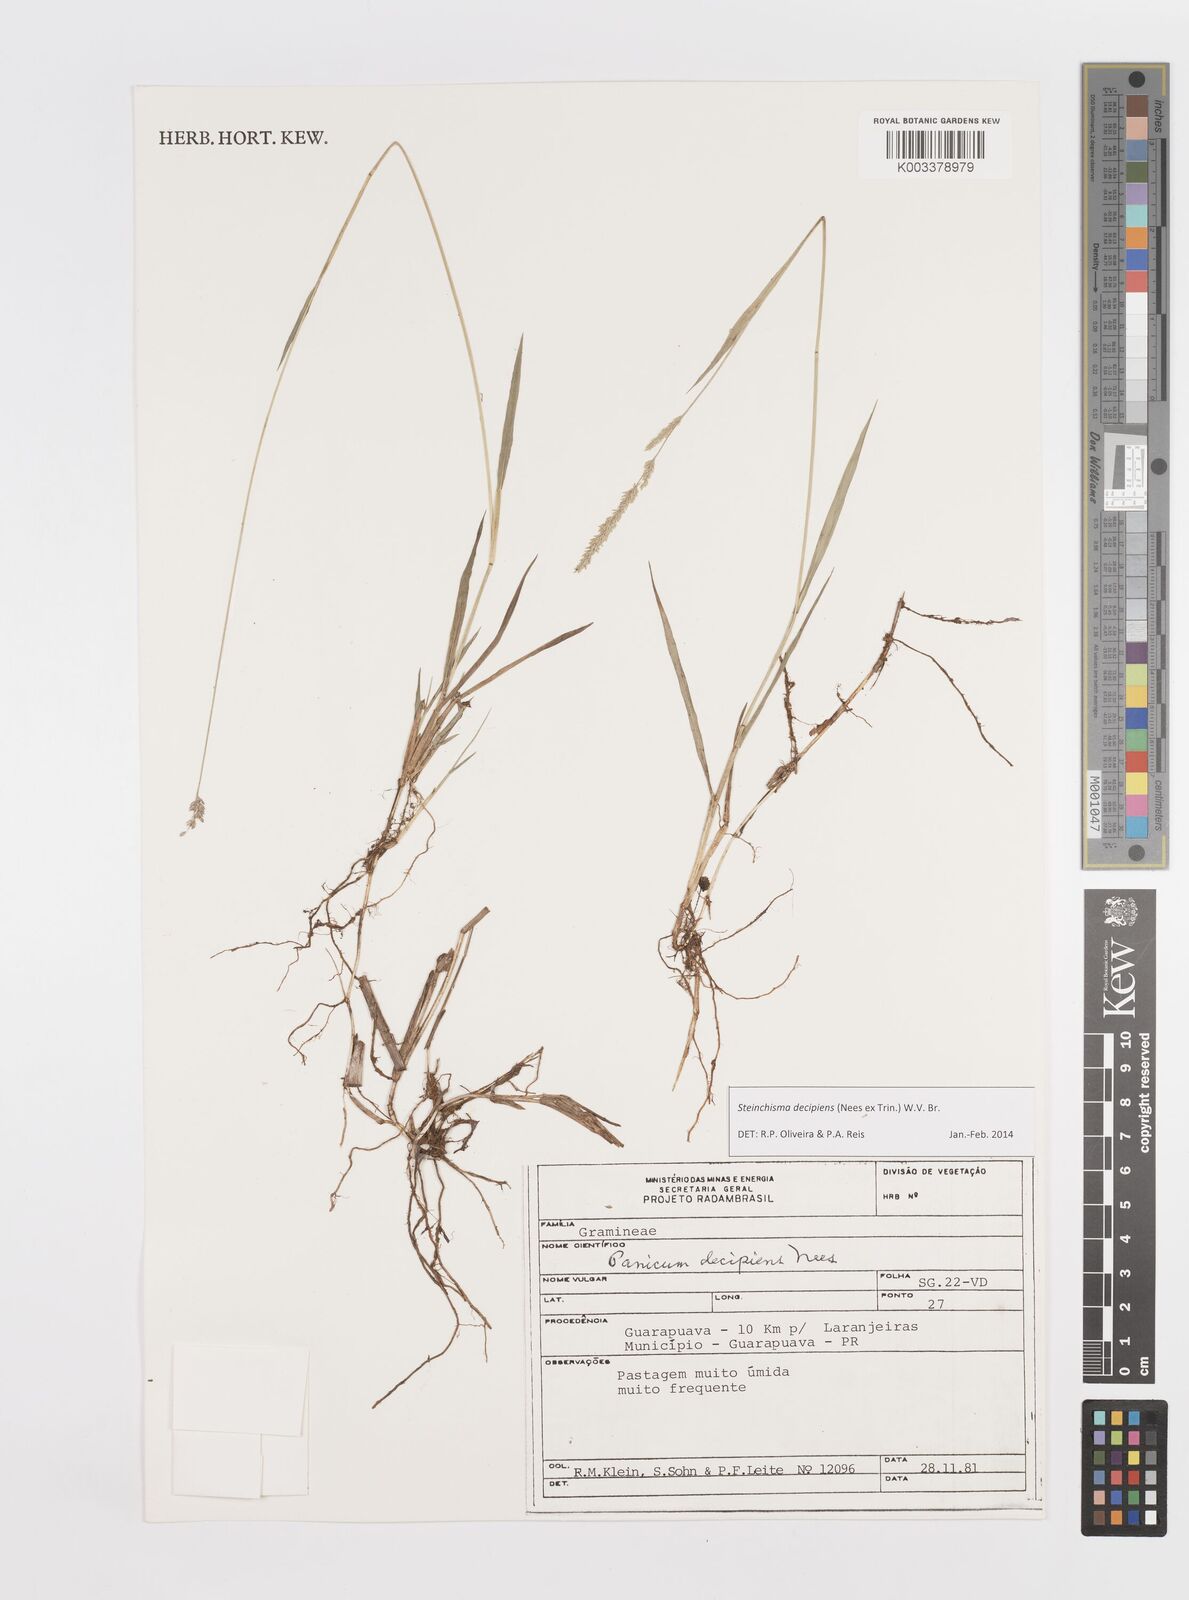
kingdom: Plantae
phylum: Tracheophyta
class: Liliopsida
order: Poales
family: Poaceae
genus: Steinchisma
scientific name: Steinchisma decipiens
